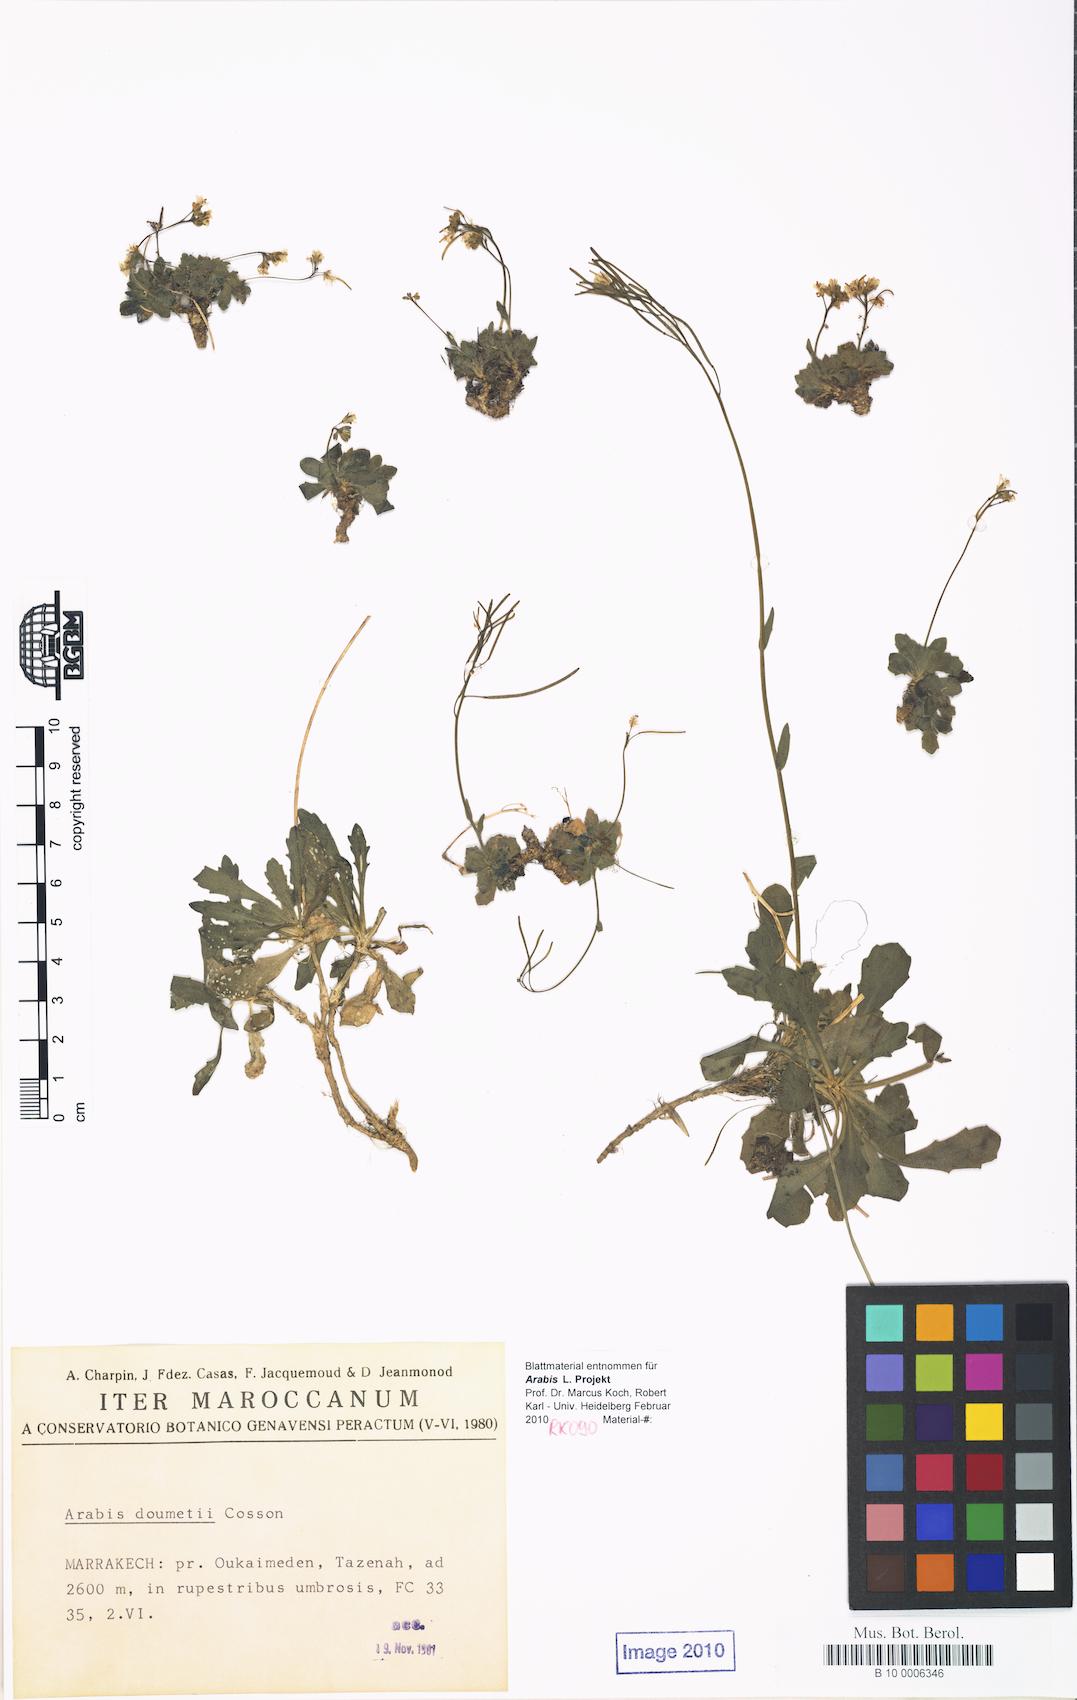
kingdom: Plantae
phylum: Tracheophyta
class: Magnoliopsida
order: Brassicales
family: Brassicaceae
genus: Arabis
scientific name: Arabis doumetii
